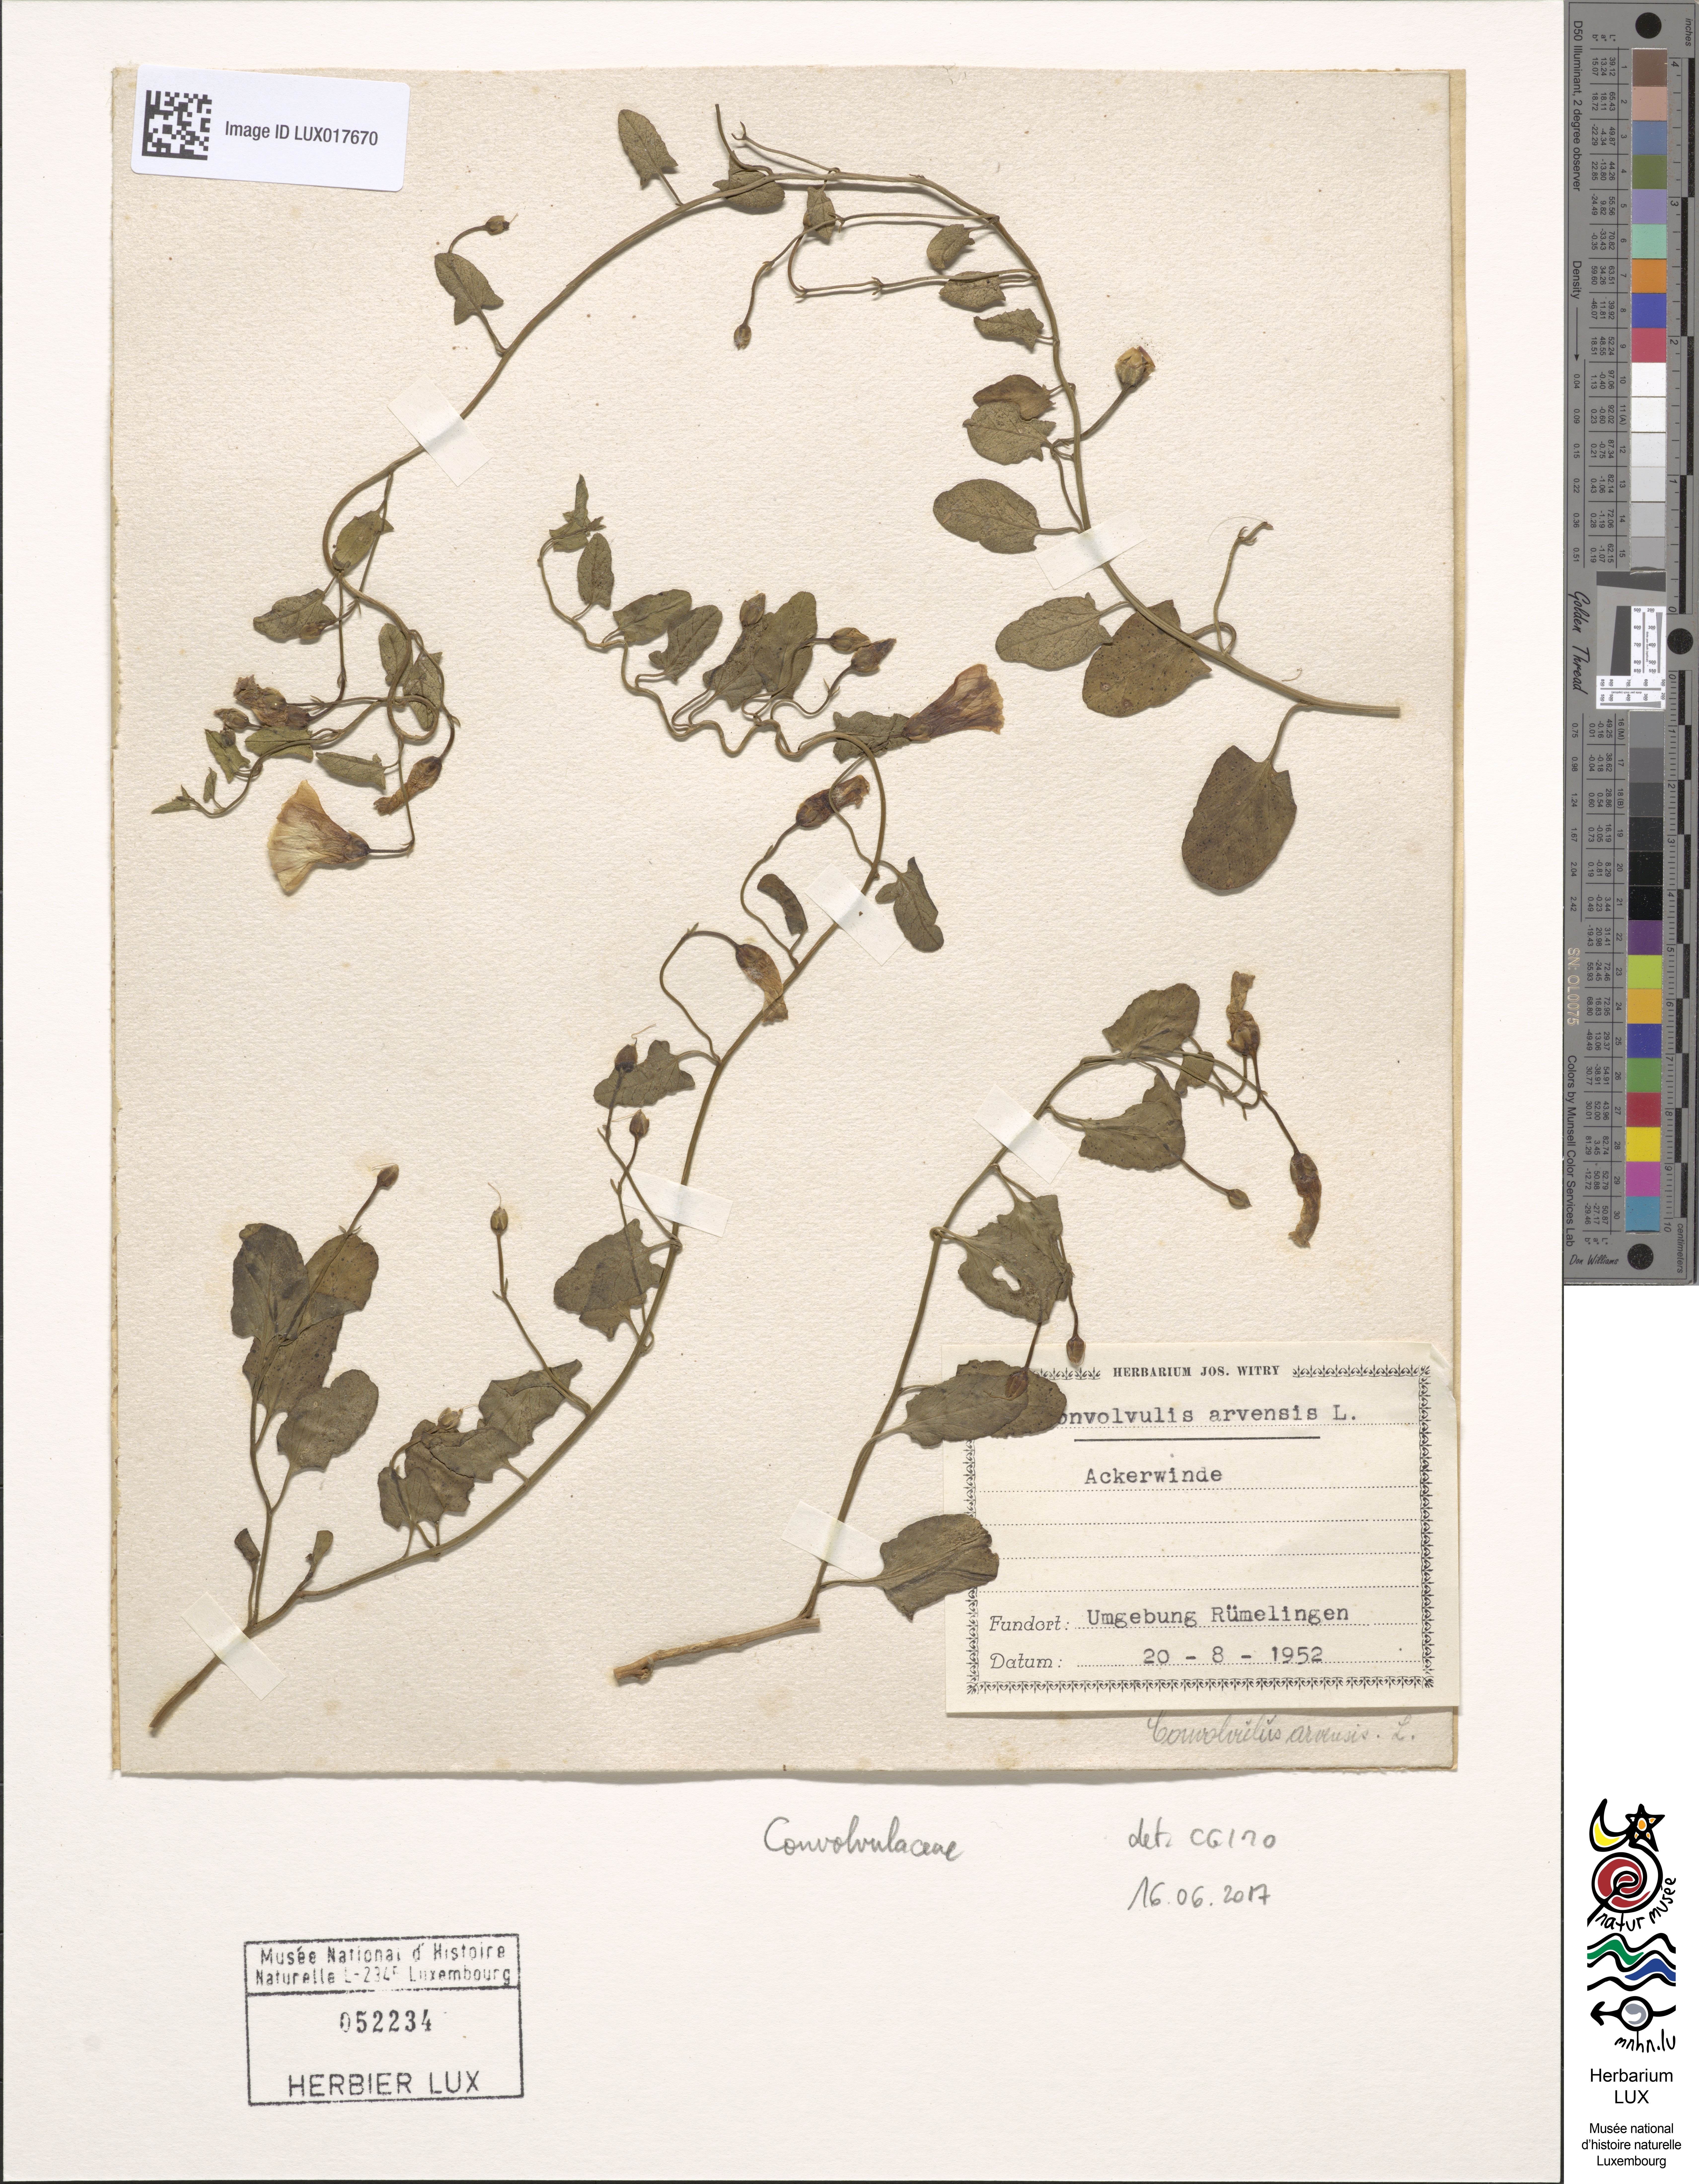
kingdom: Plantae
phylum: Tracheophyta
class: Magnoliopsida
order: Solanales
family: Convolvulaceae
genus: Convolvulus
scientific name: Convolvulus arvensis
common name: Field bindweed
